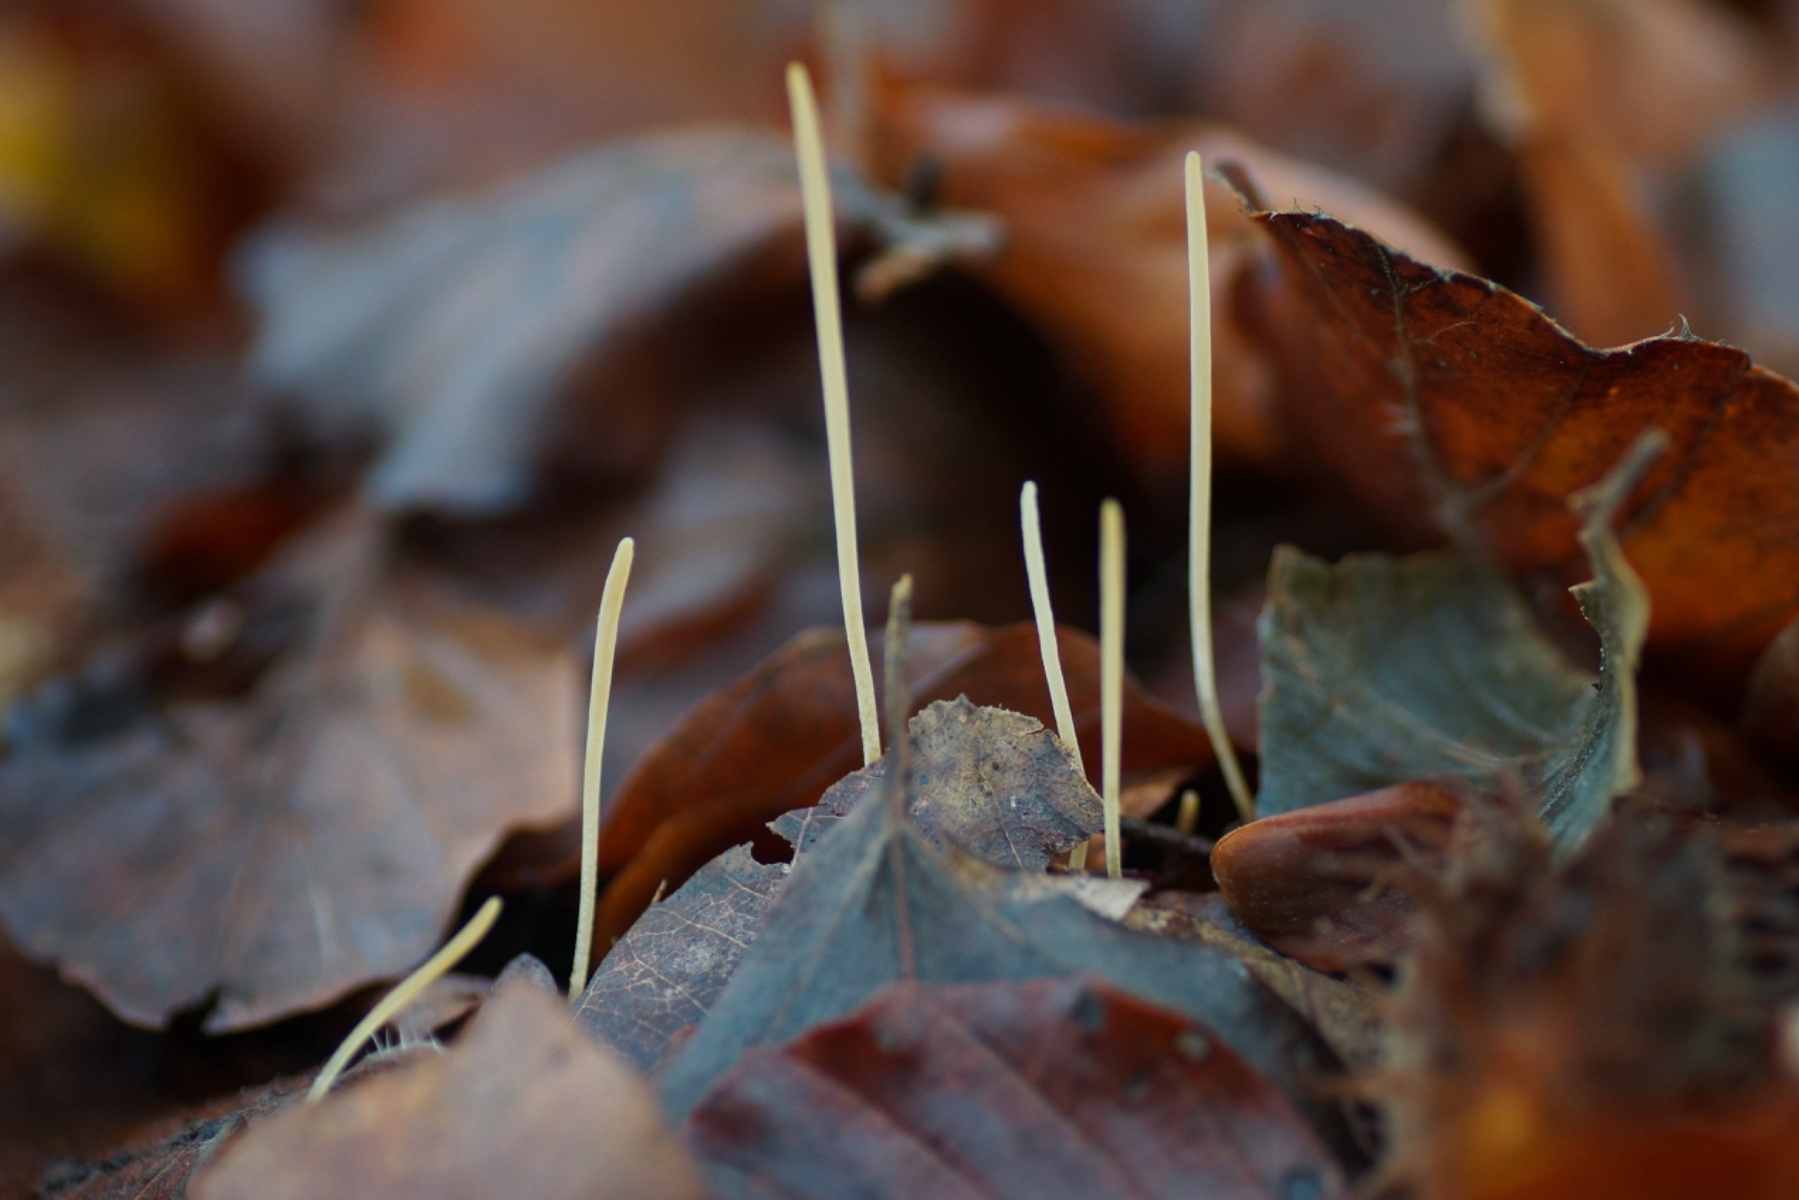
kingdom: Fungi
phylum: Basidiomycota
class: Agaricomycetes
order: Agaricales
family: Typhulaceae
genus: Typhula
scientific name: Typhula juncea
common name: trådagtig rørkølle
